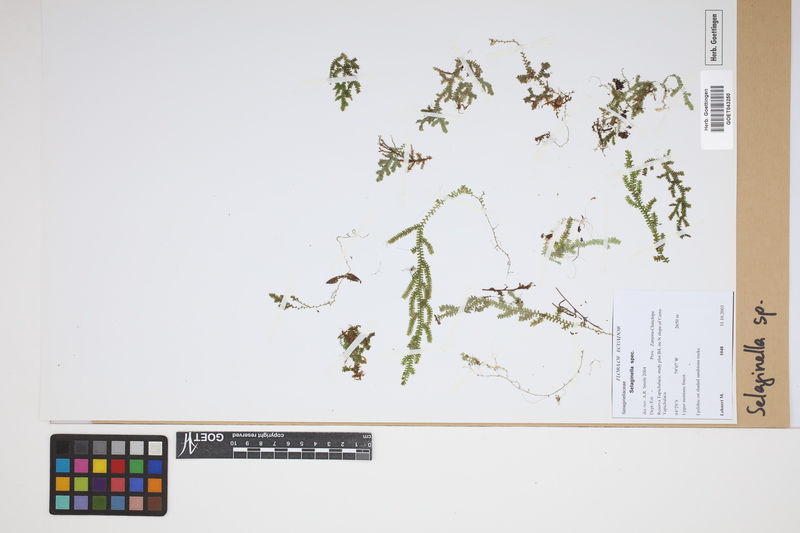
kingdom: Plantae
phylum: Tracheophyta
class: Lycopodiopsida
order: Selaginellales
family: Selaginellaceae
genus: Selaginella
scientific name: Selaginella
